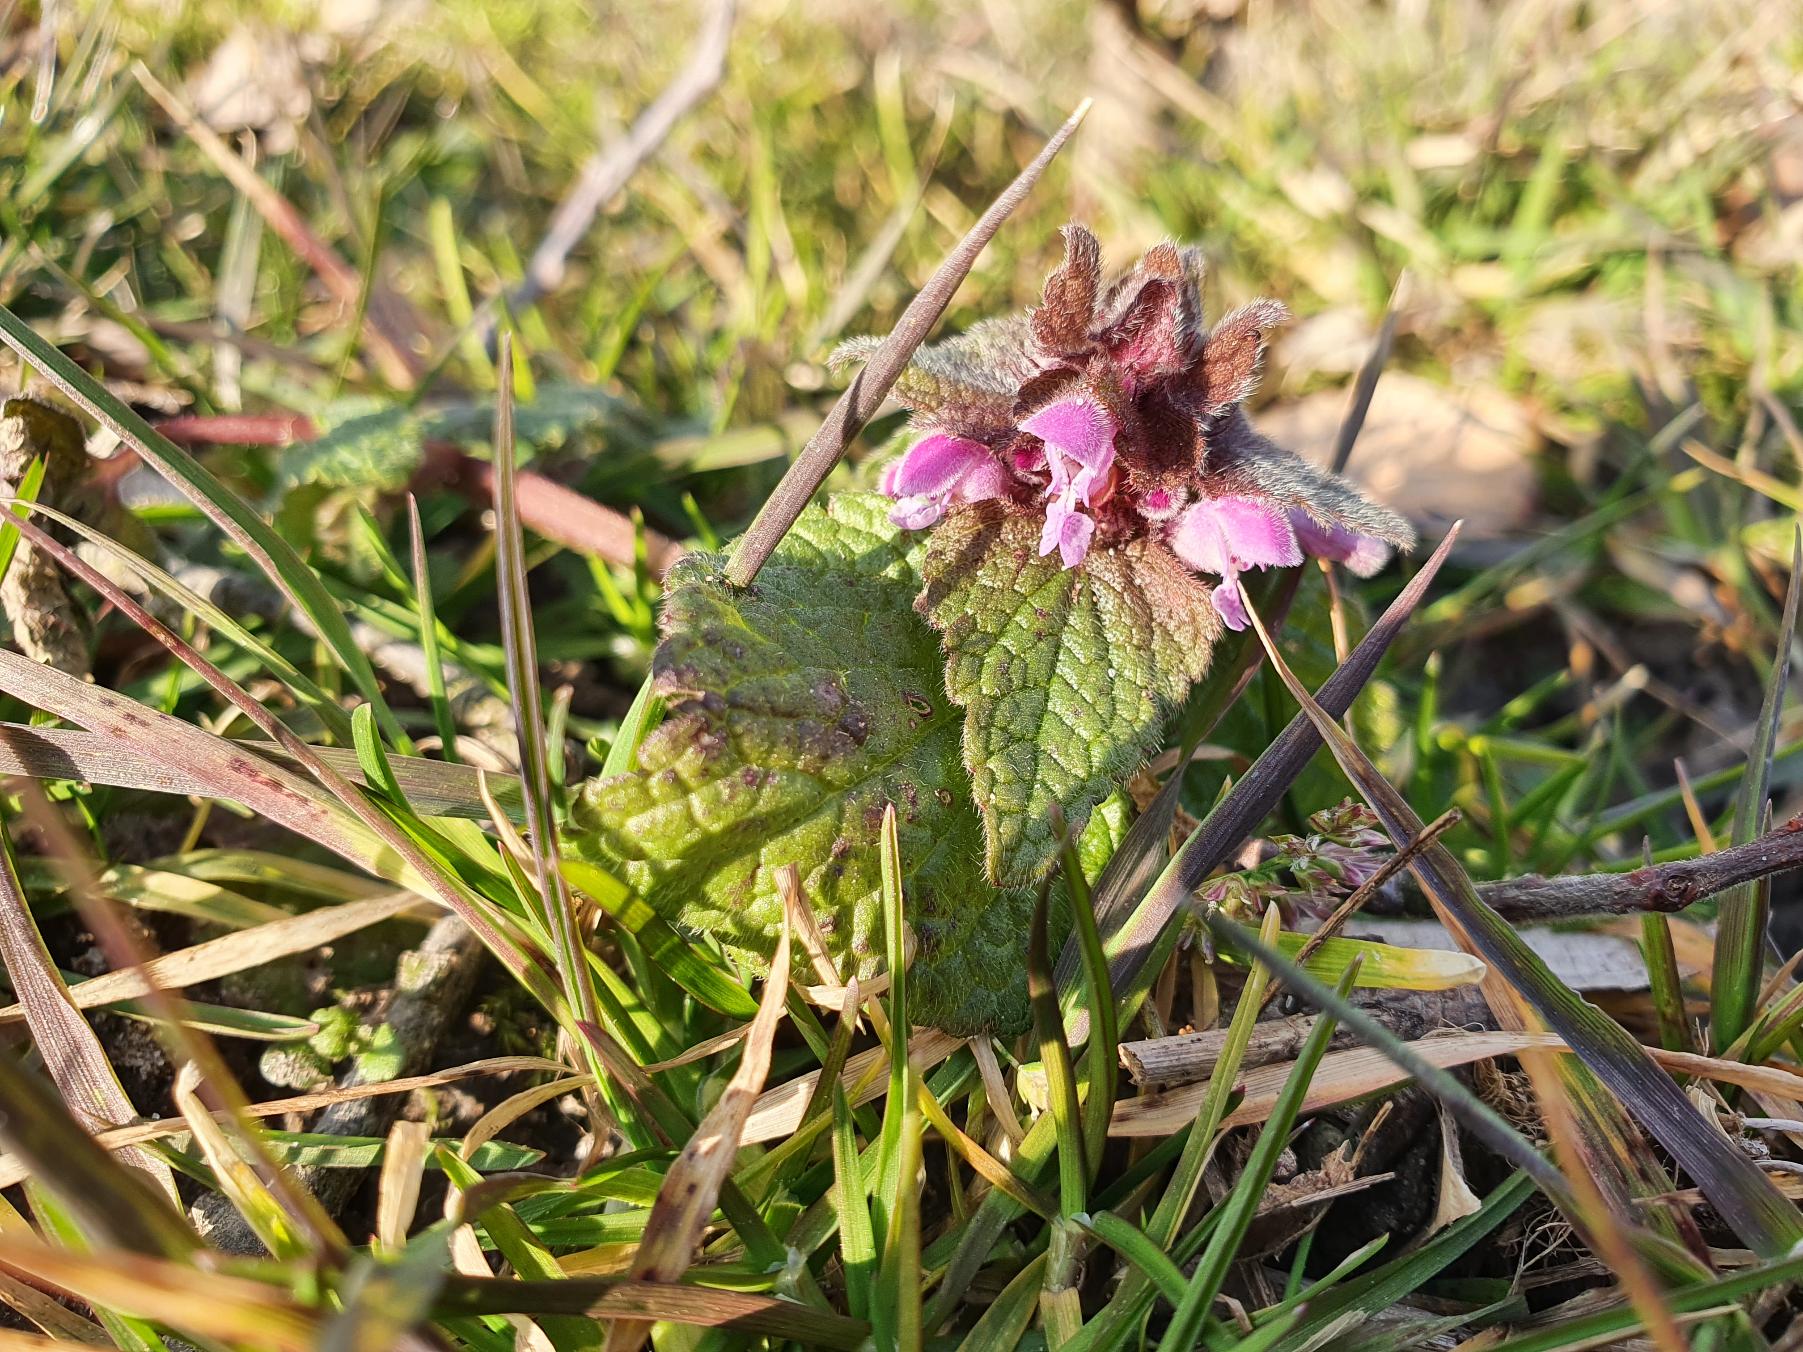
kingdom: Plantae
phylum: Tracheophyta
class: Magnoliopsida
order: Lamiales
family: Lamiaceae
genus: Lamium
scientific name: Lamium purpureum
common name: Rød tvetand
